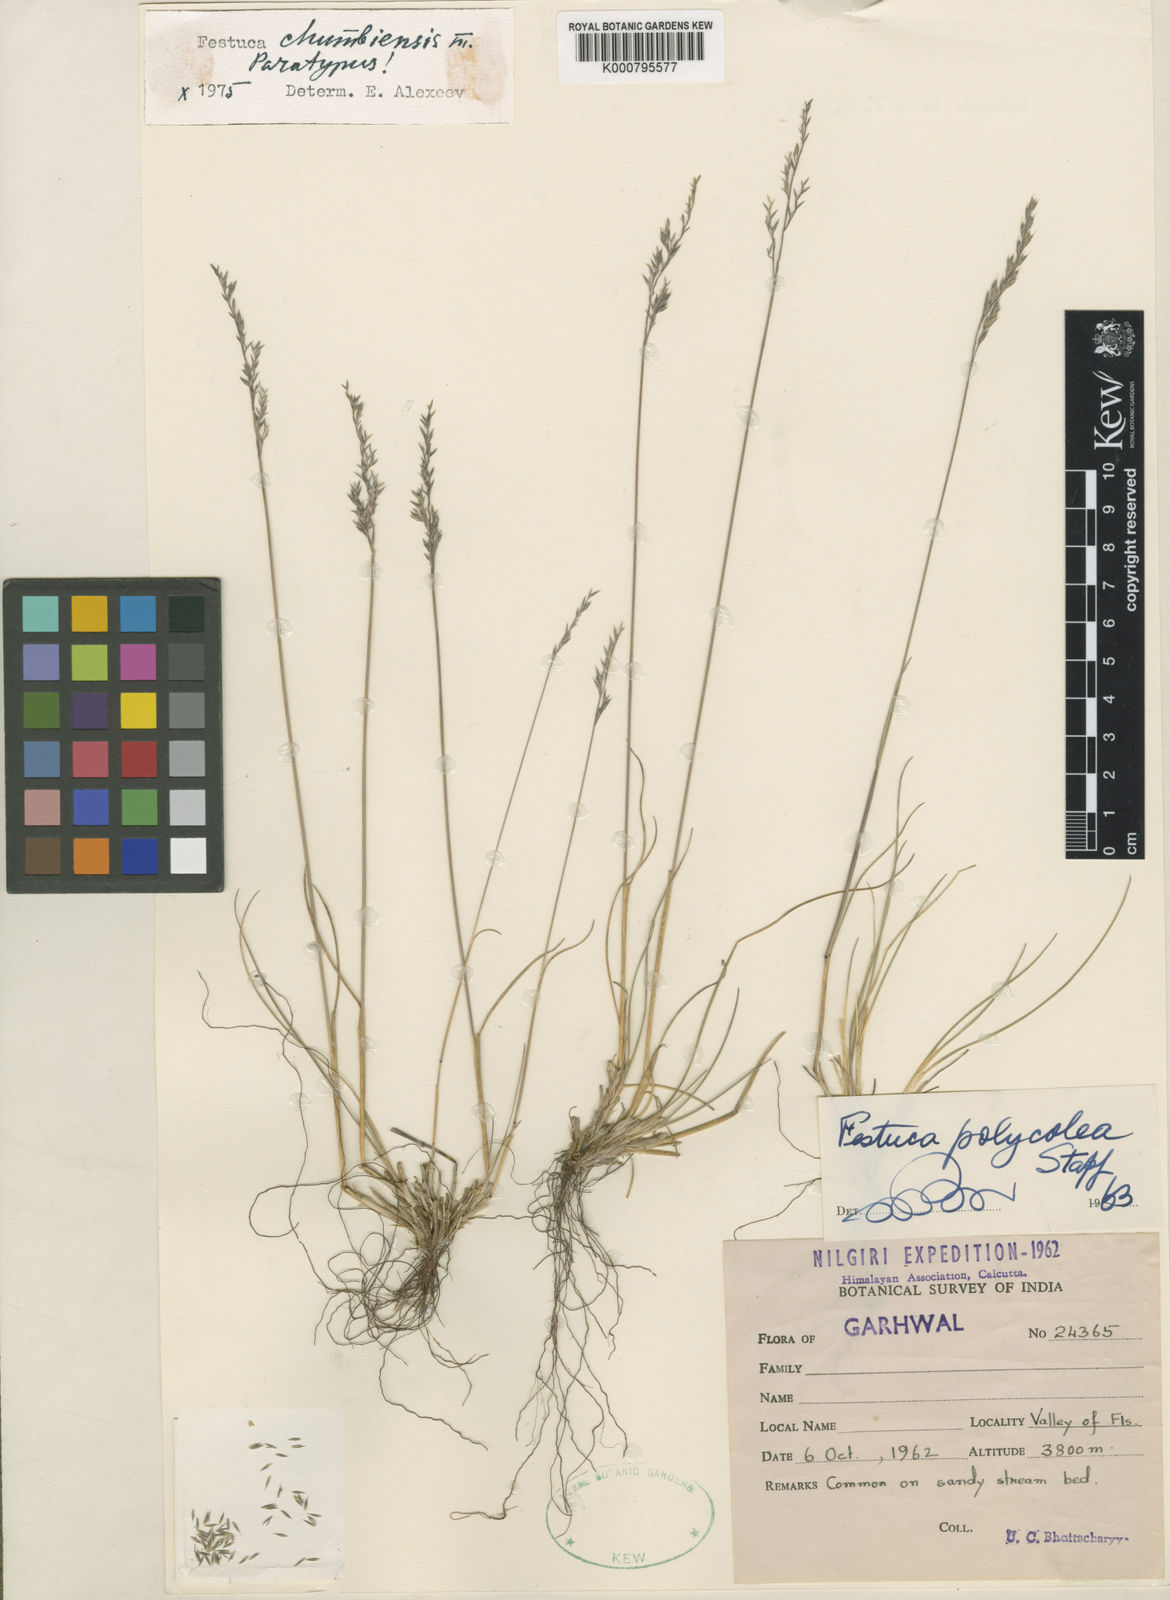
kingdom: Plantae
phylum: Tracheophyta
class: Liliopsida
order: Poales
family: Poaceae
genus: Festuca
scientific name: Festuca chumbiensis
